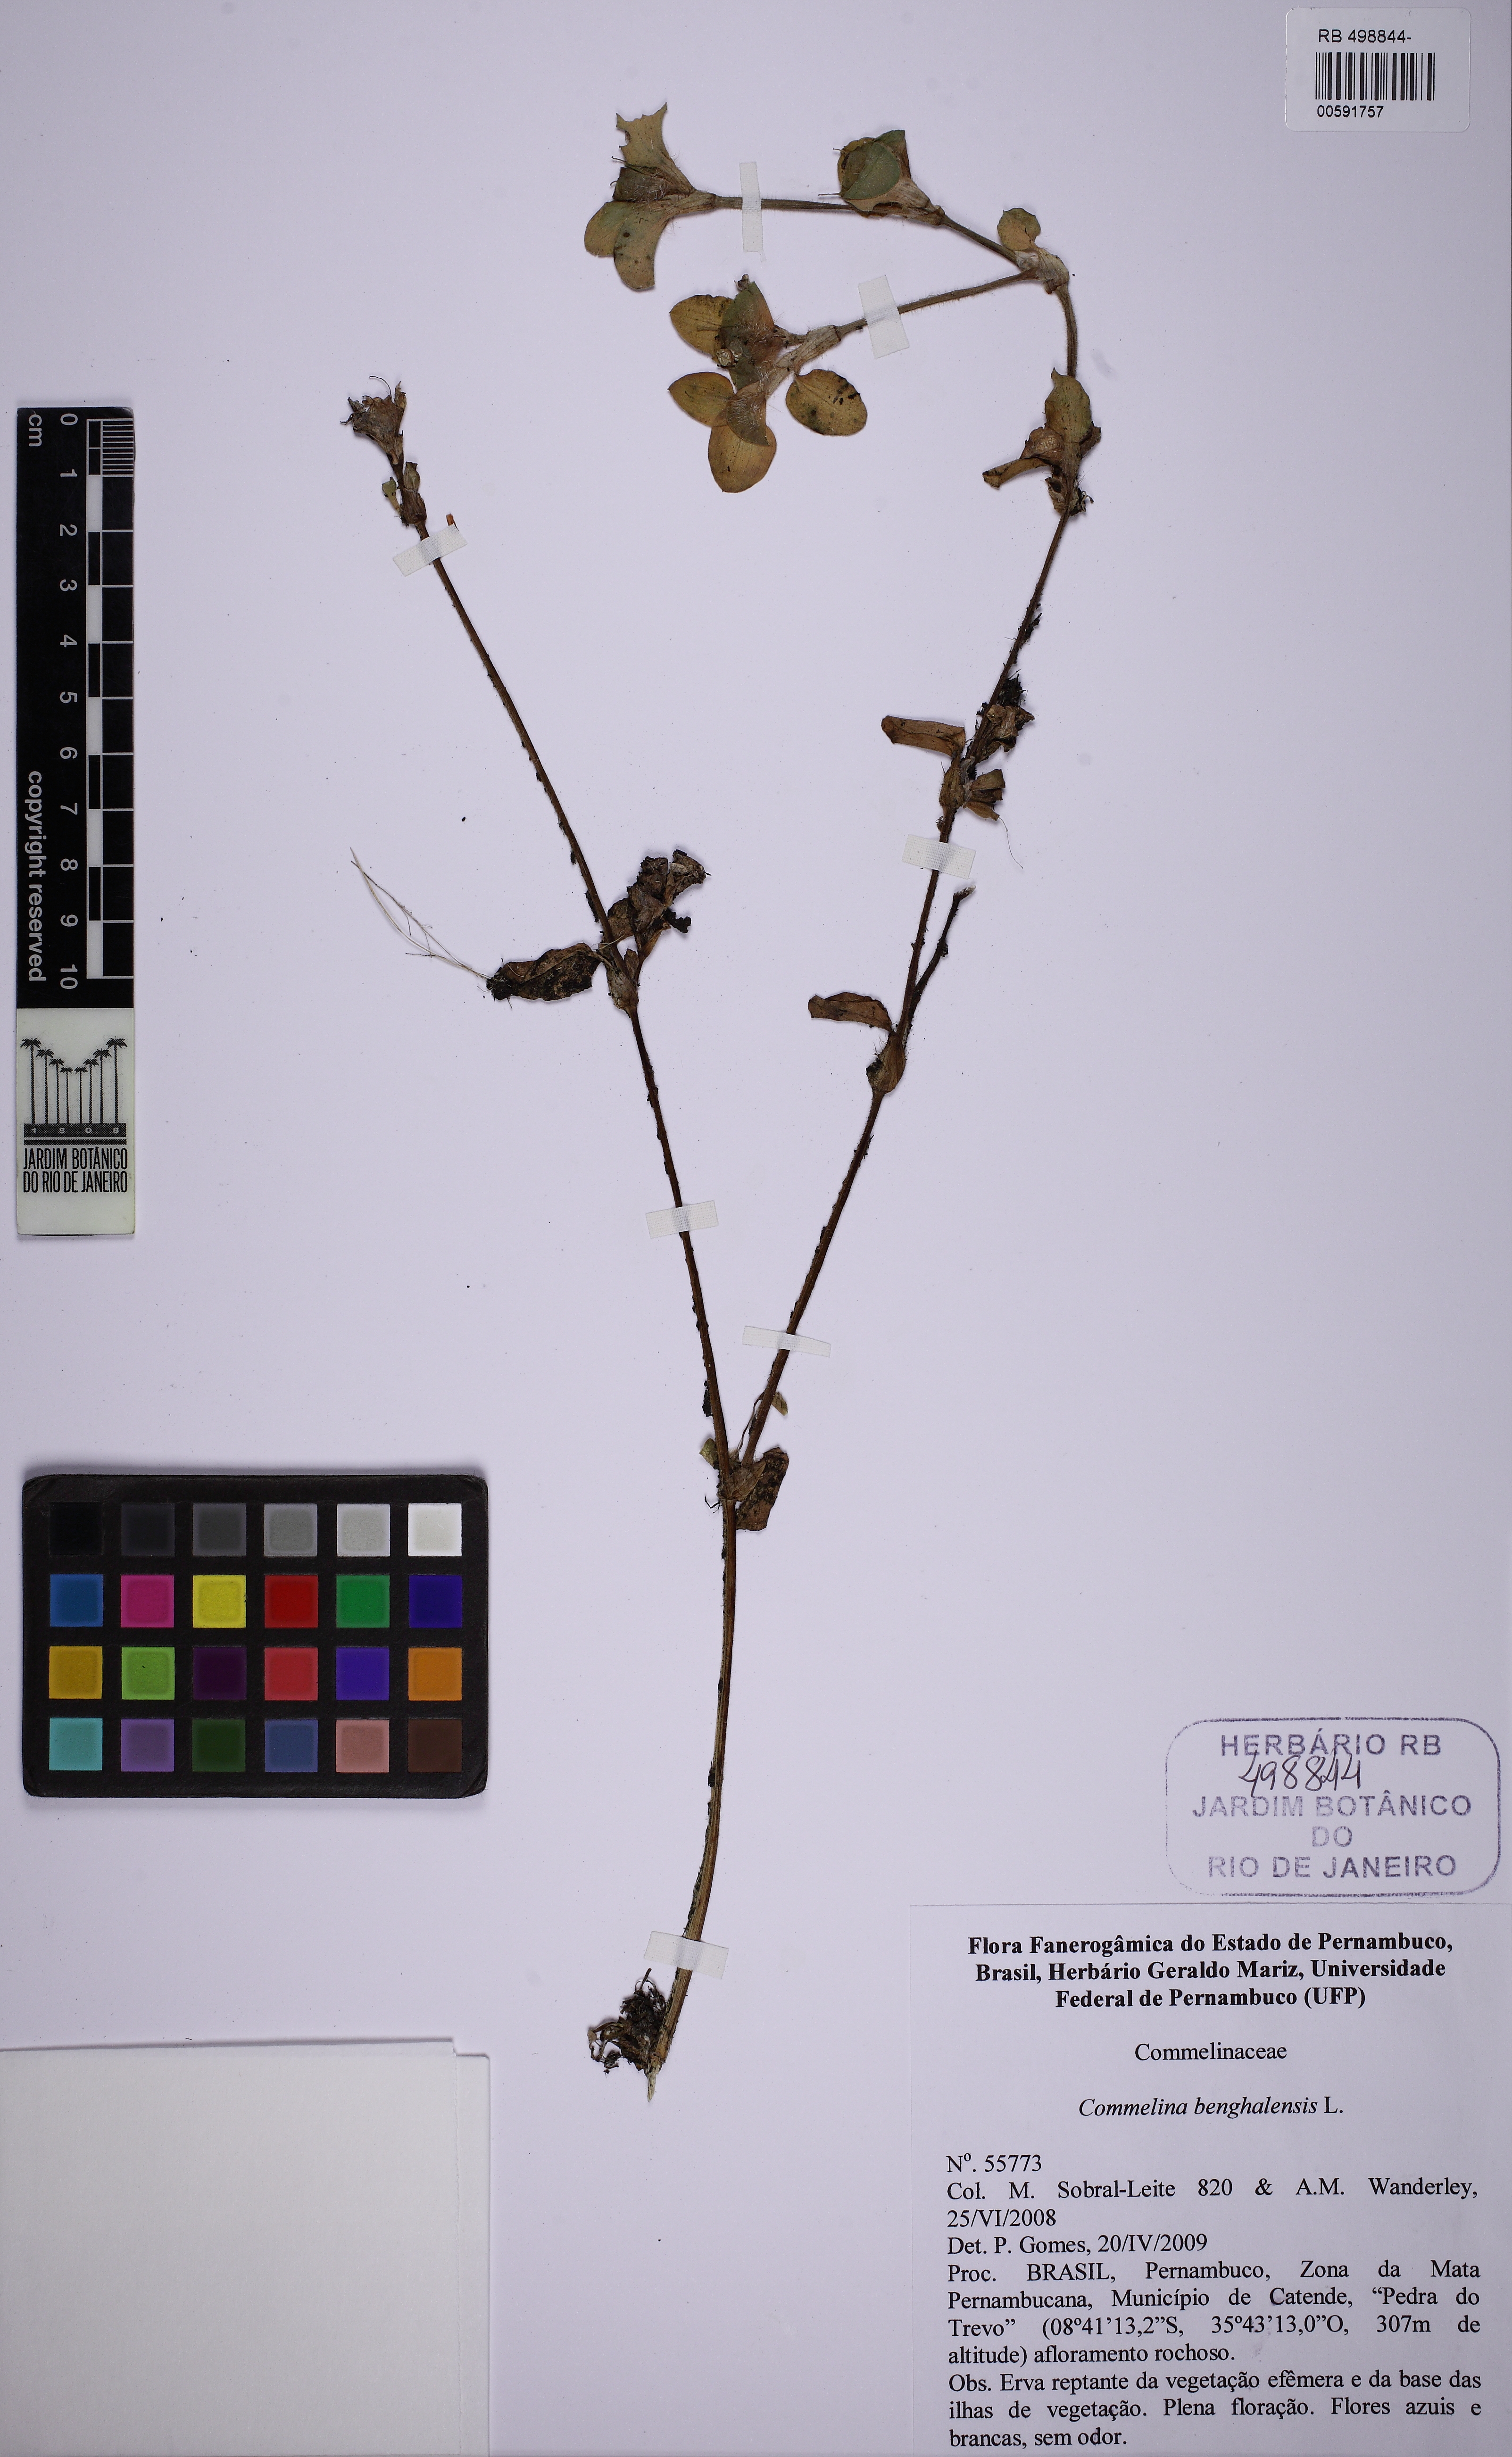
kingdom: Plantae
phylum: Tracheophyta
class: Liliopsida
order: Commelinales
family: Commelinaceae
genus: Commelina
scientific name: Commelina benghalensis
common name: Jio
